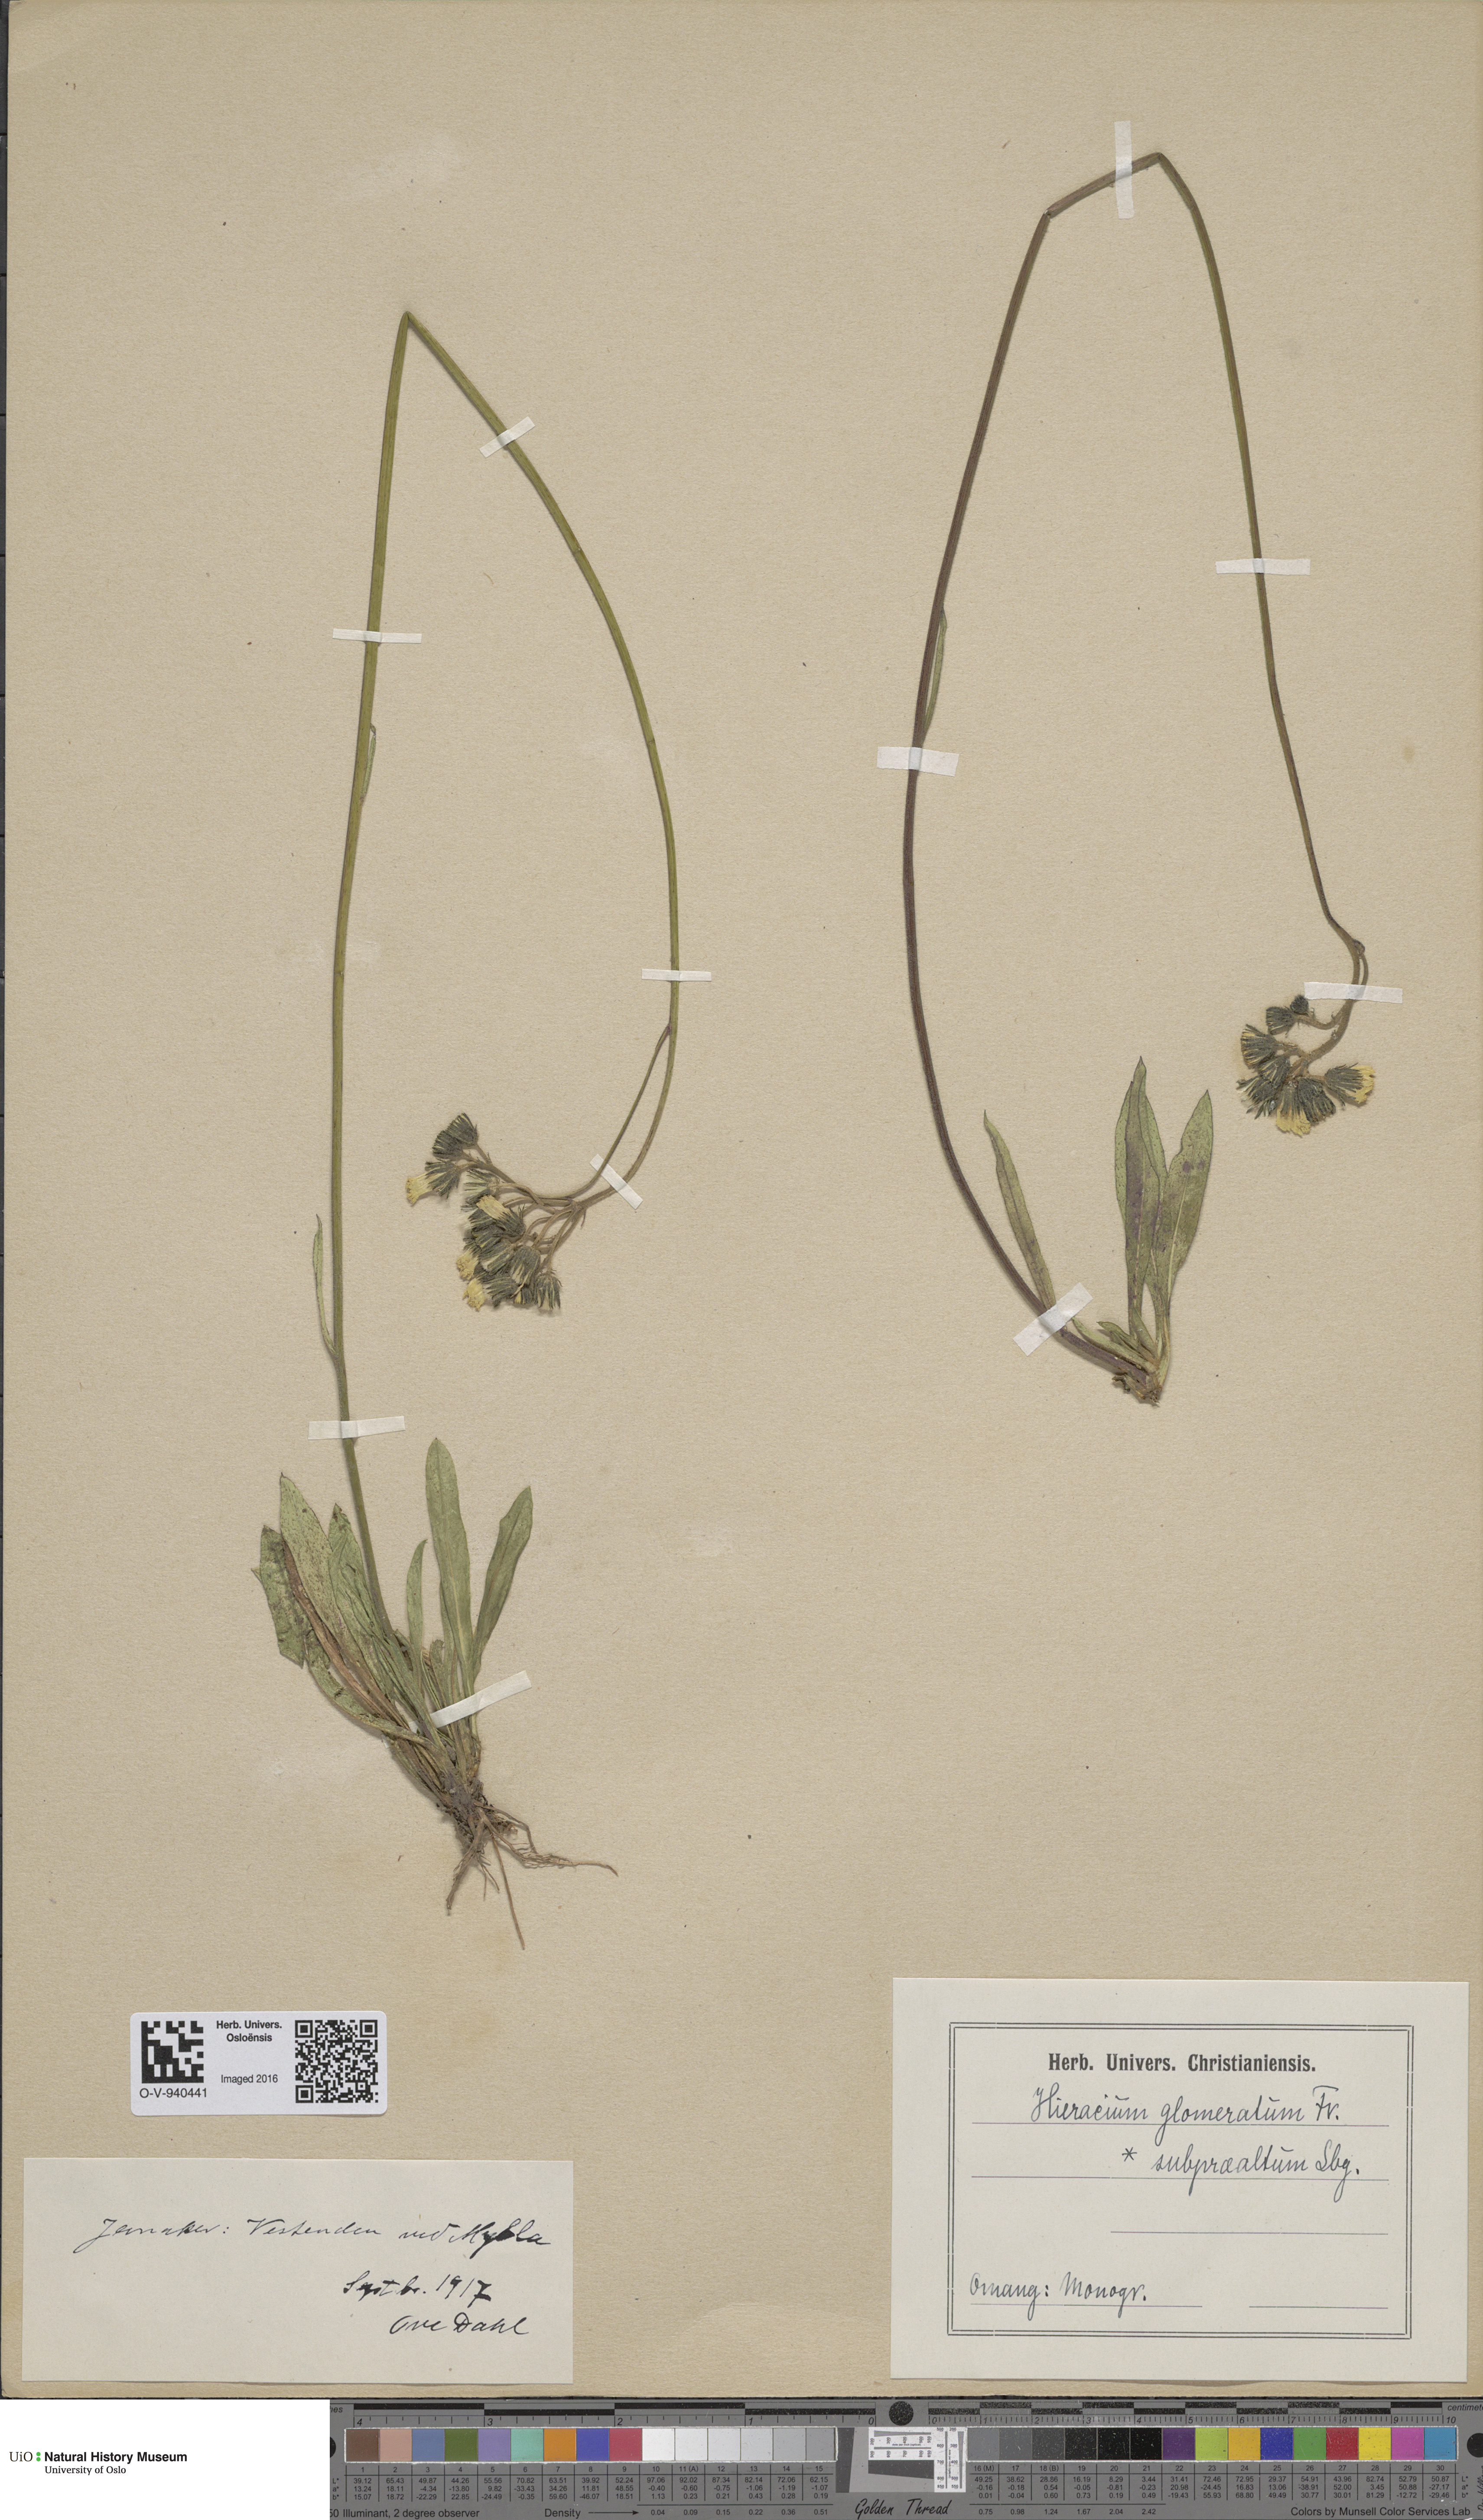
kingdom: Plantae
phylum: Tracheophyta
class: Magnoliopsida
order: Asterales
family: Asteraceae
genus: Pilosella
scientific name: Pilosella glomerata
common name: Queen devil hawkweed
